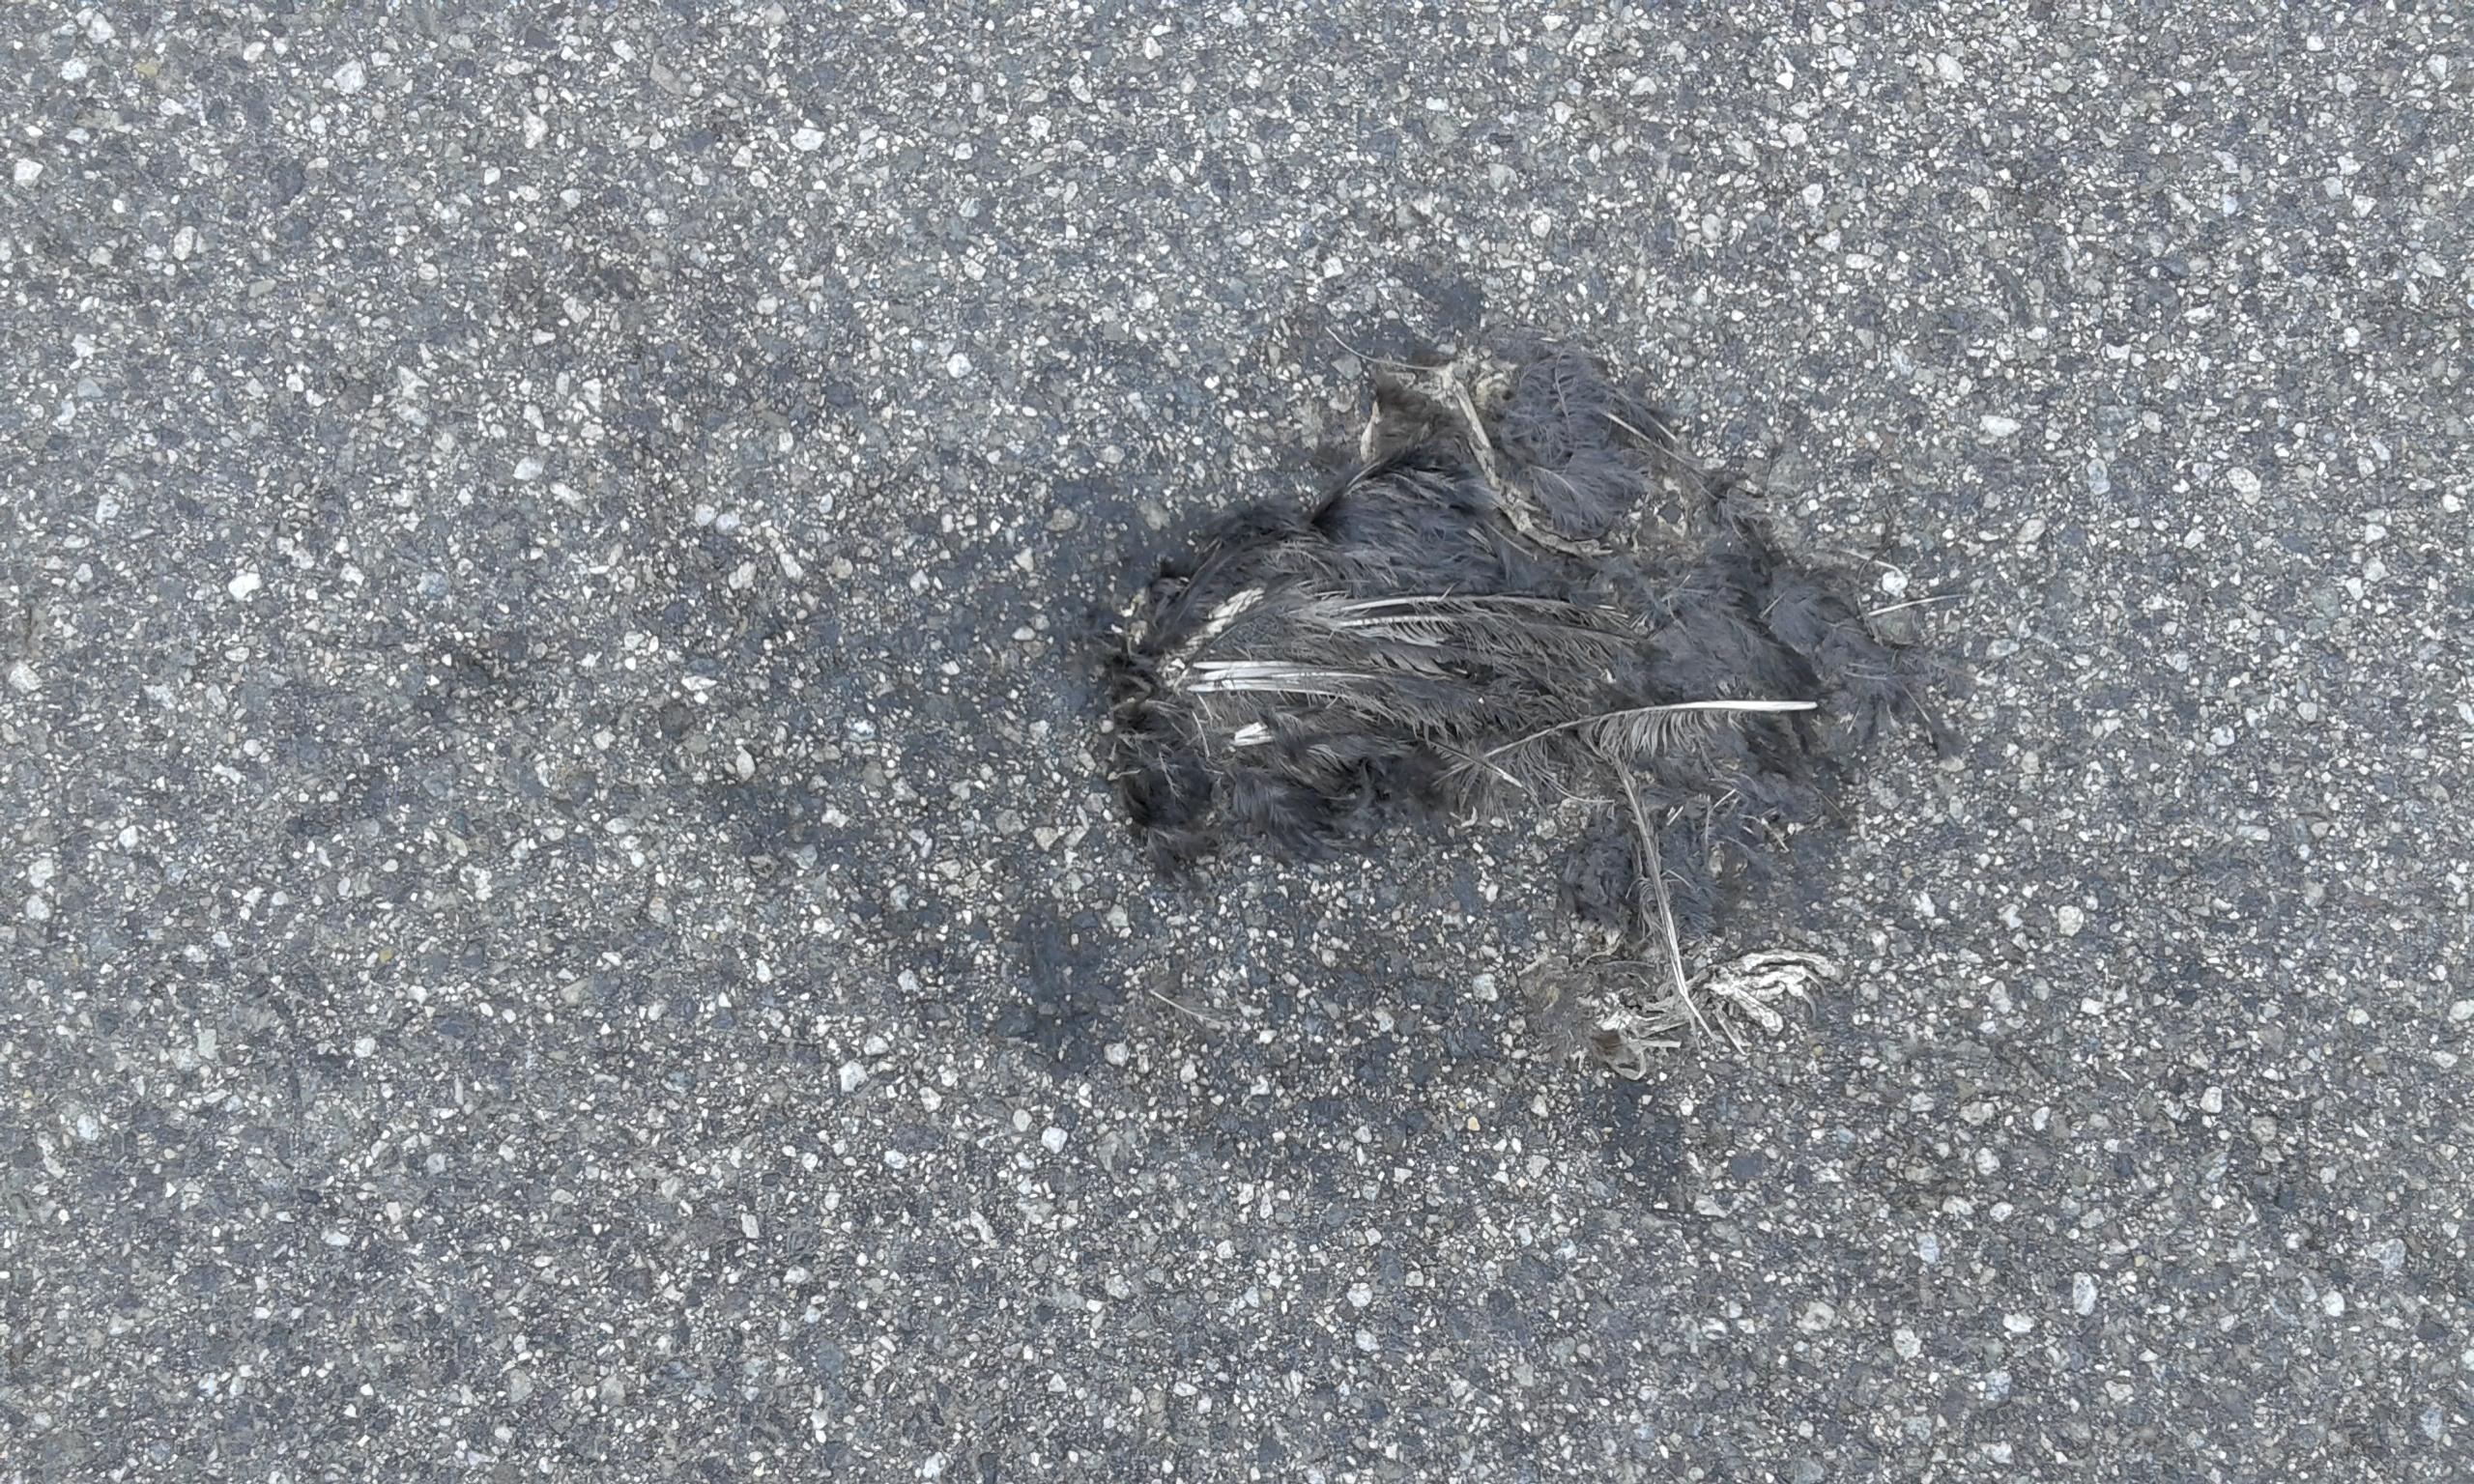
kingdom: Animalia
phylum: Chordata
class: Aves
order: Passeriformes
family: Turdidae
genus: Turdus
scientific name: Turdus merula
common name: Common blackbird
